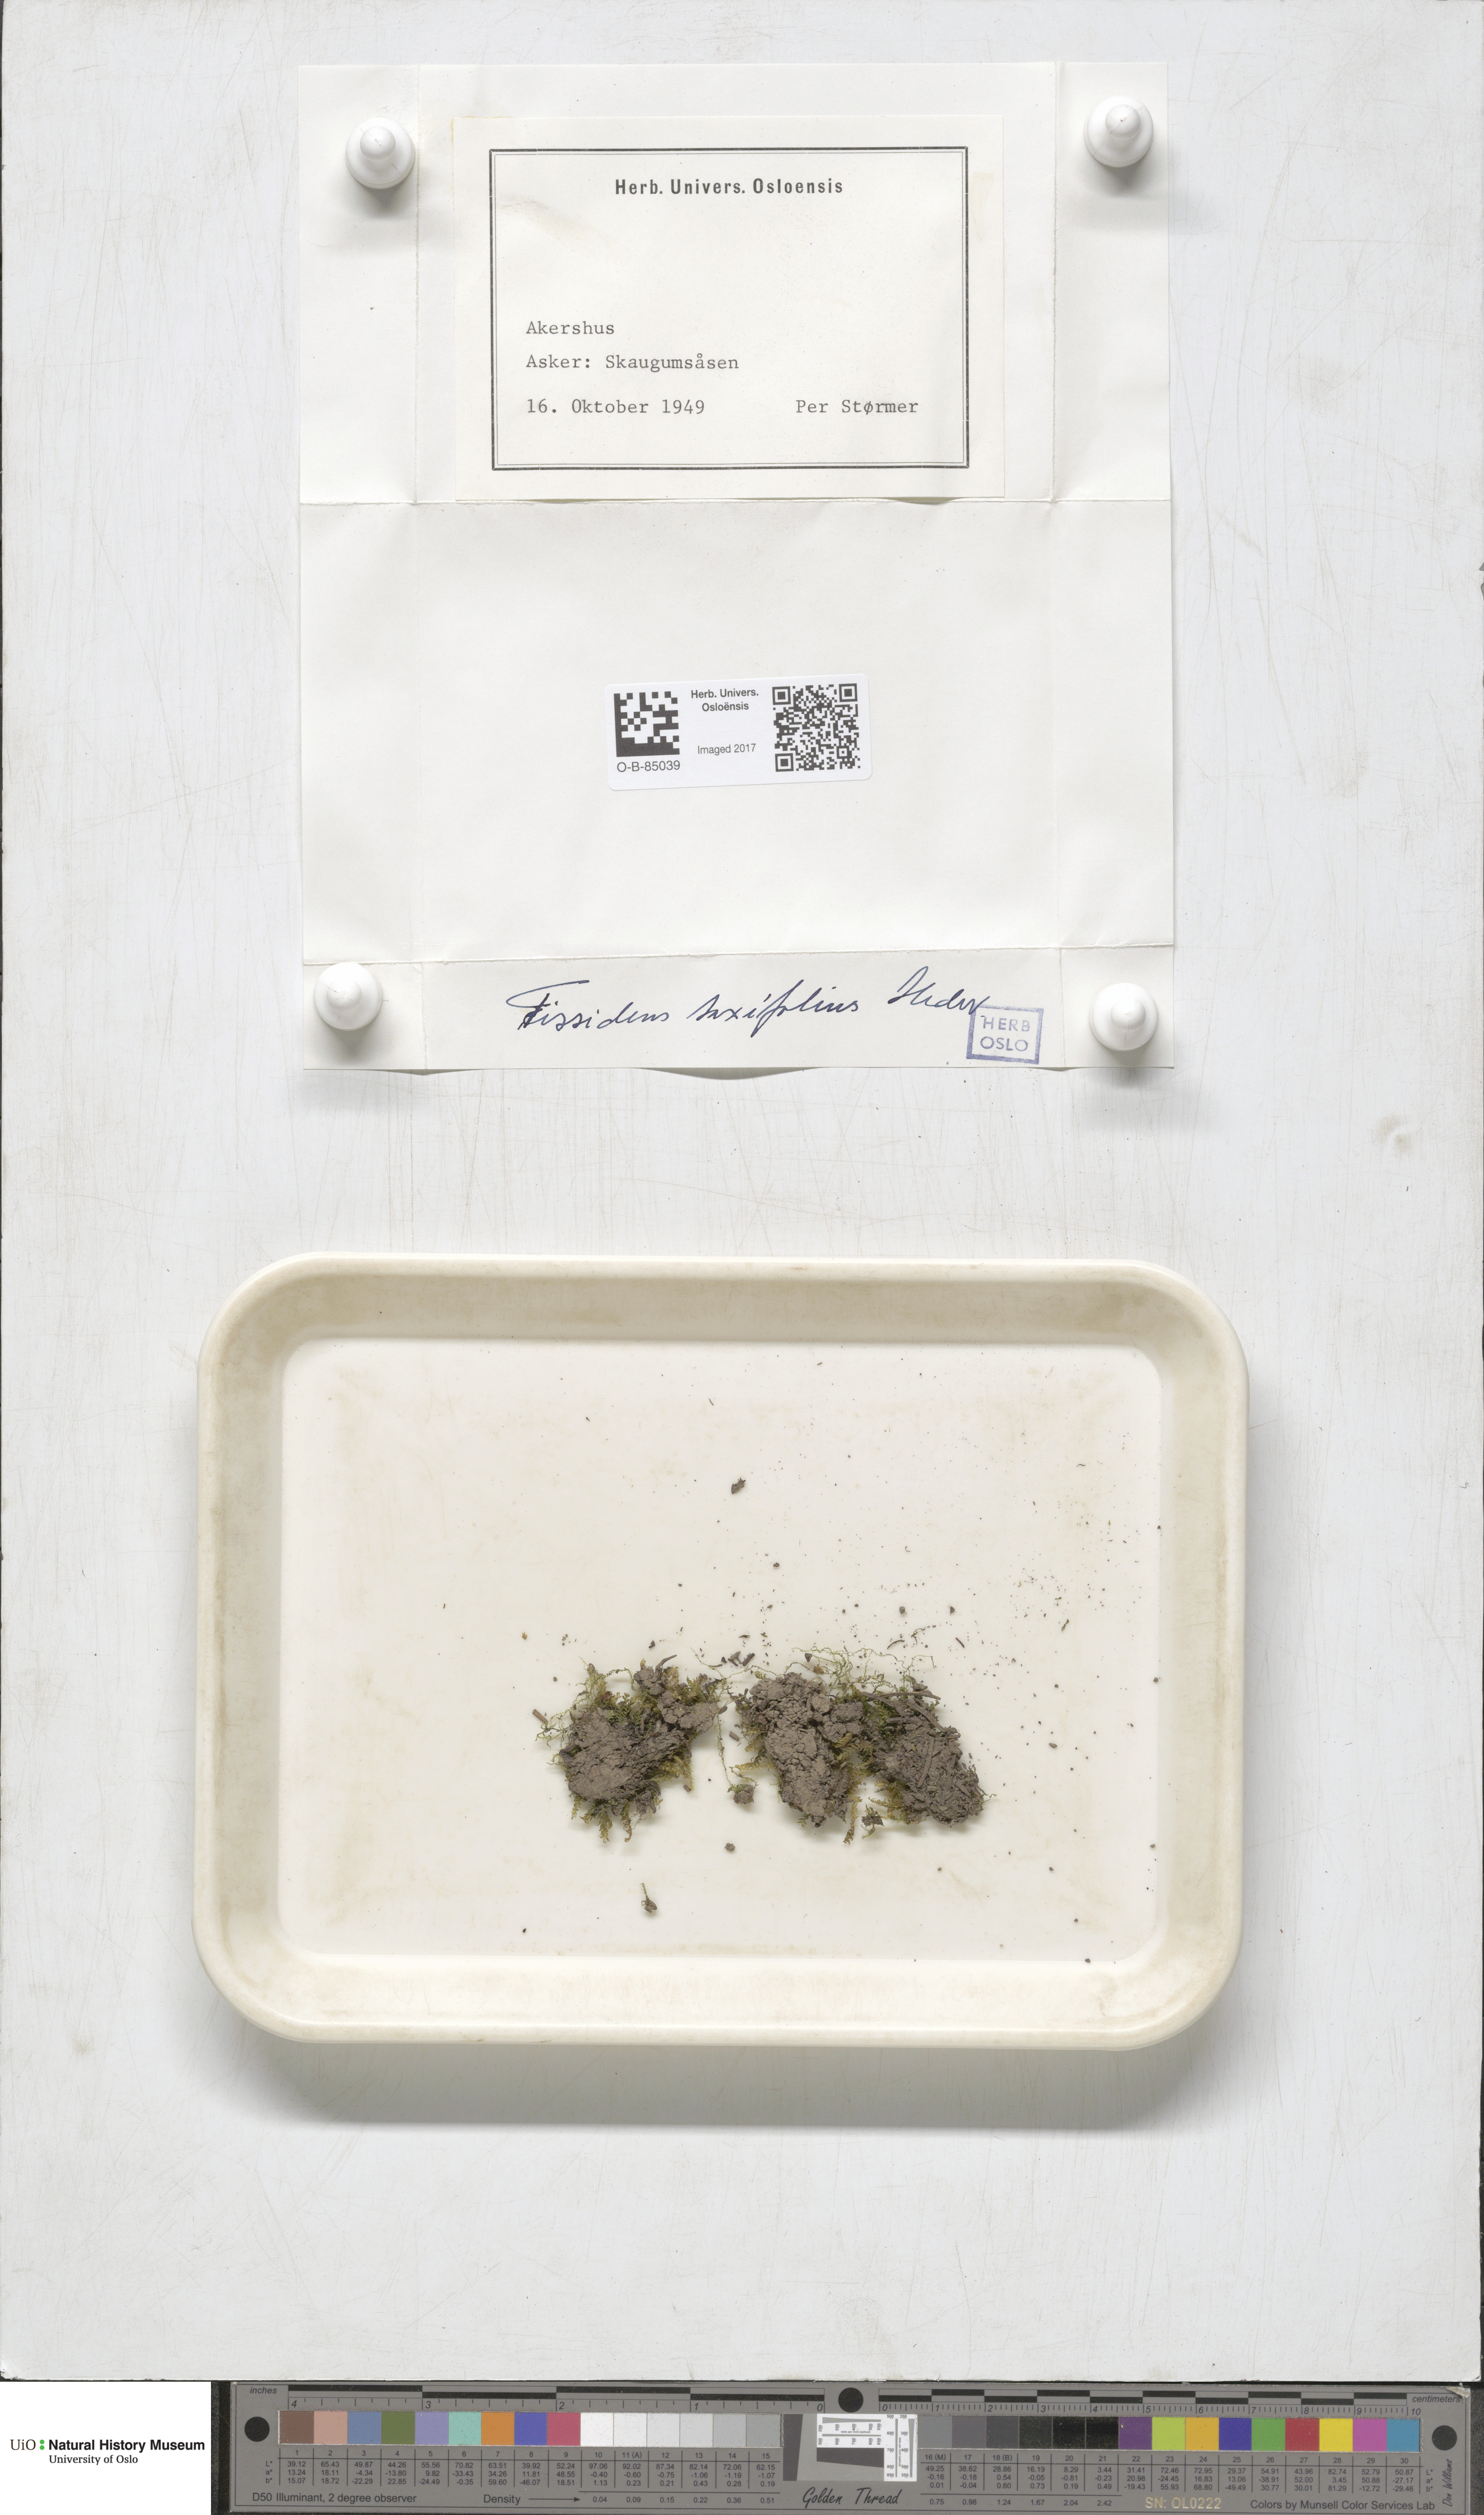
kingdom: Plantae
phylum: Bryophyta
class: Bryopsida
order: Dicranales
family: Fissidentaceae
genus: Fissidens
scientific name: Fissidens taxifolius
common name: Yew-leaved pocket moss
